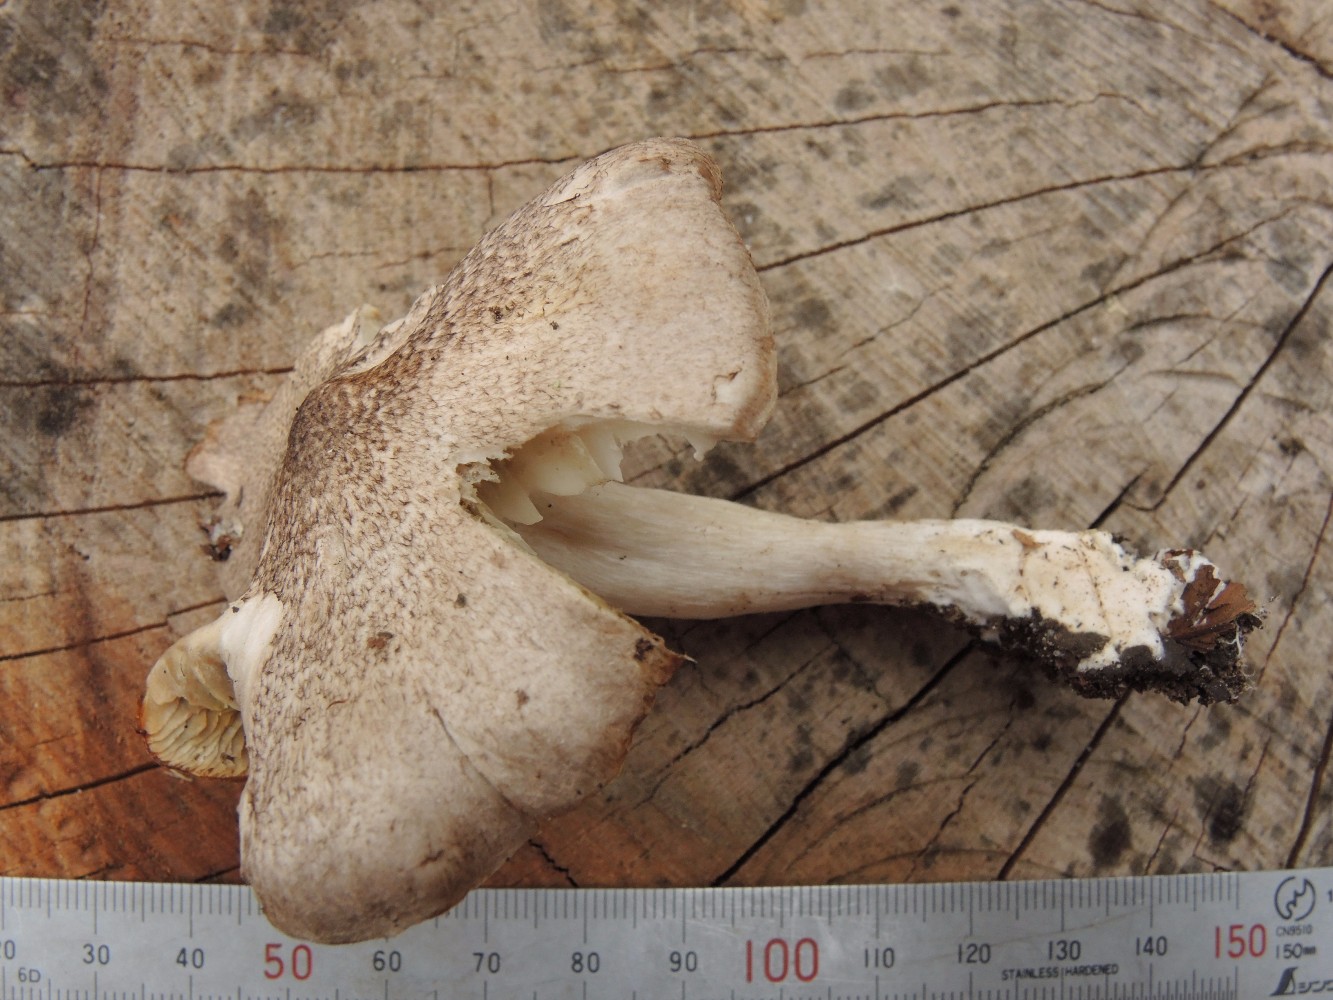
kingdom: Fungi
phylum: Basidiomycota
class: Agaricomycetes
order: Agaricales
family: Tricholomataceae
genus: Tricholoma
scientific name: Tricholoma scalpturatum
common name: gulplettet ridderhat
